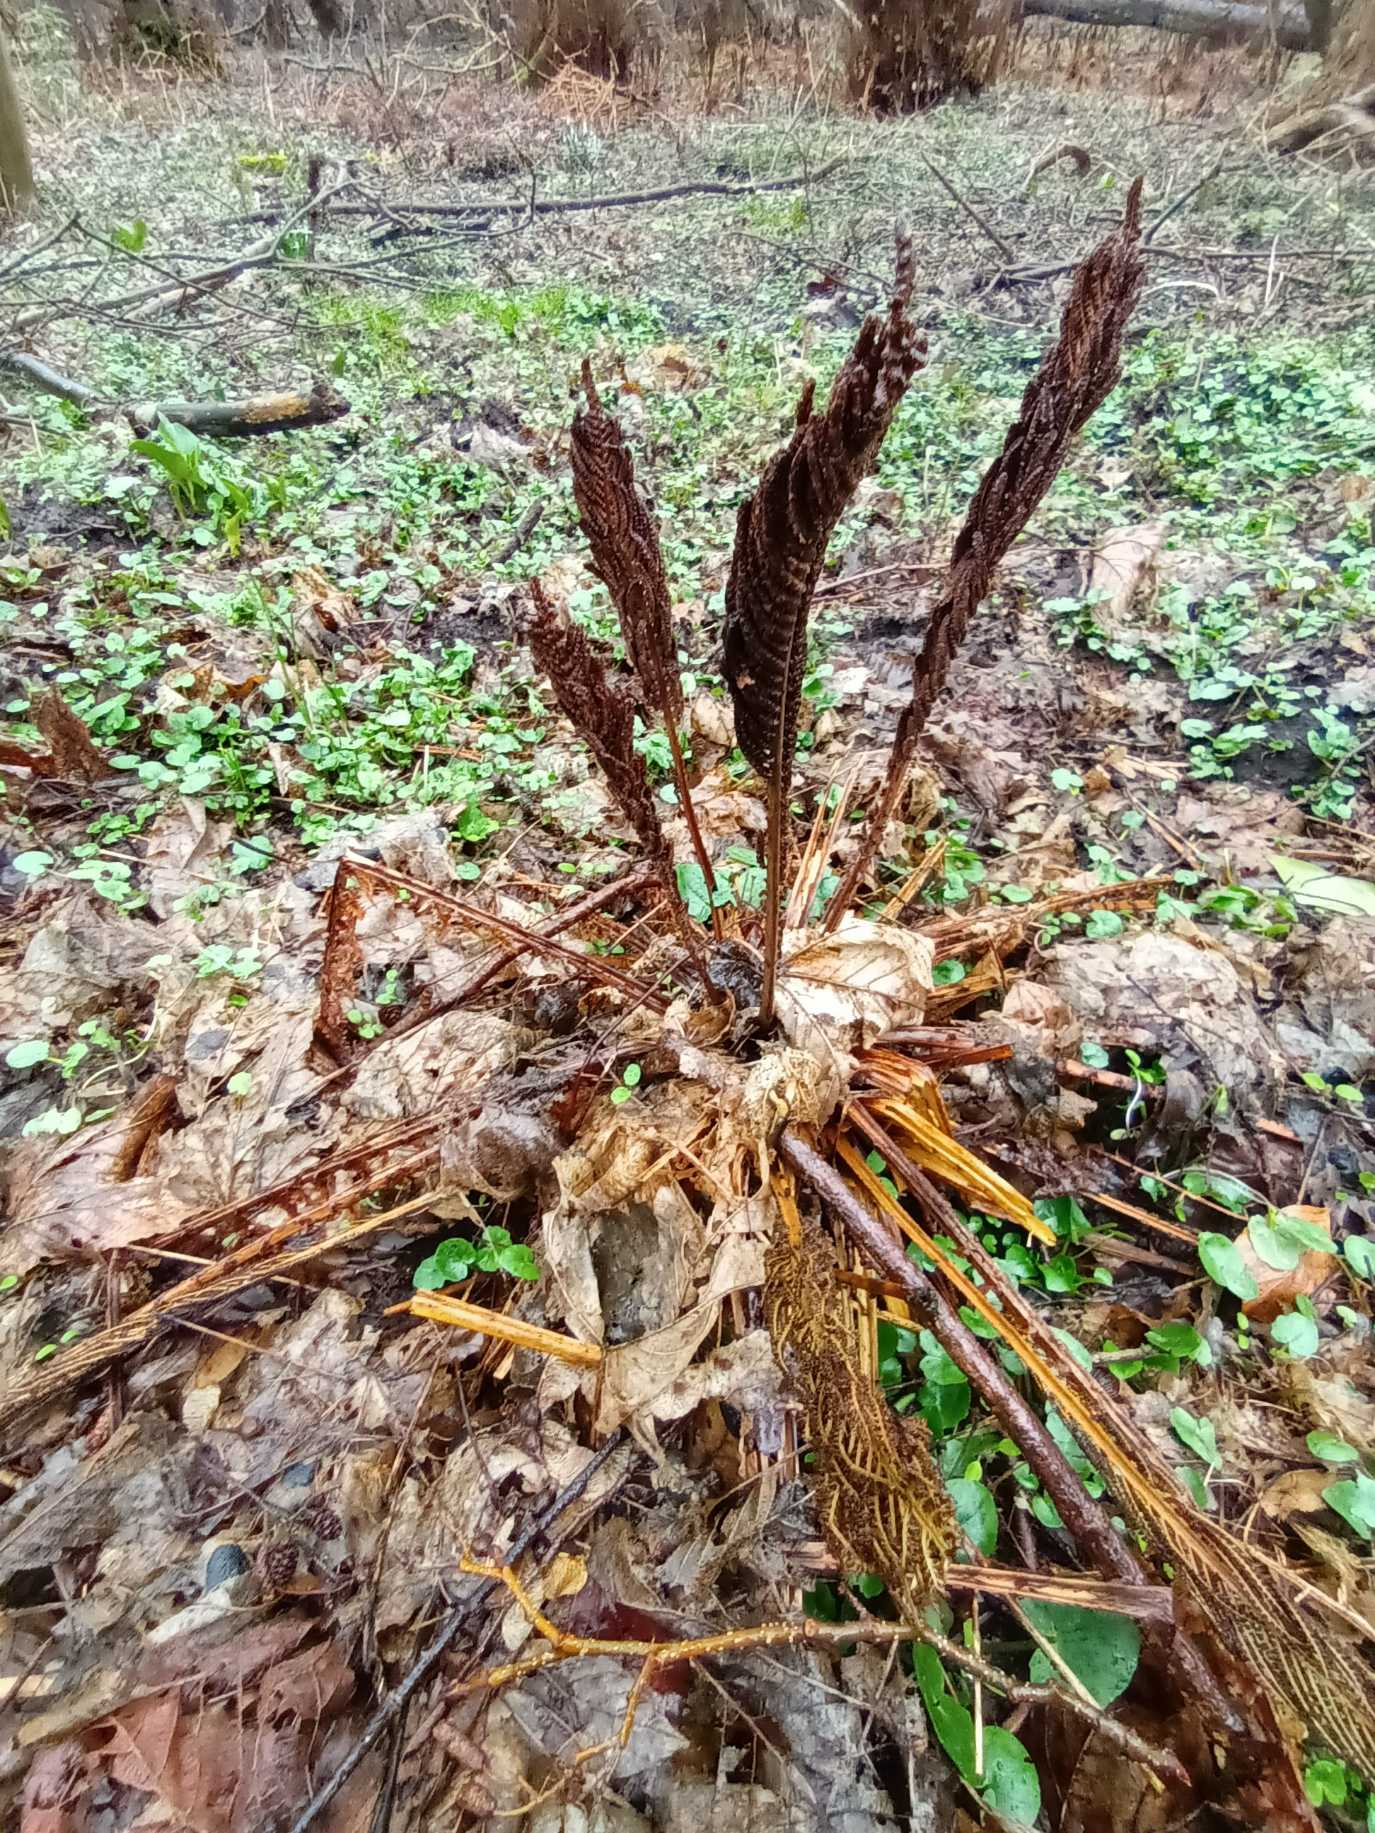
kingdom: Plantae
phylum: Tracheophyta
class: Polypodiopsida
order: Polypodiales
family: Onocleaceae
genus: Matteuccia
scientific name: Matteuccia struthiopteris
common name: Strudsvinge
